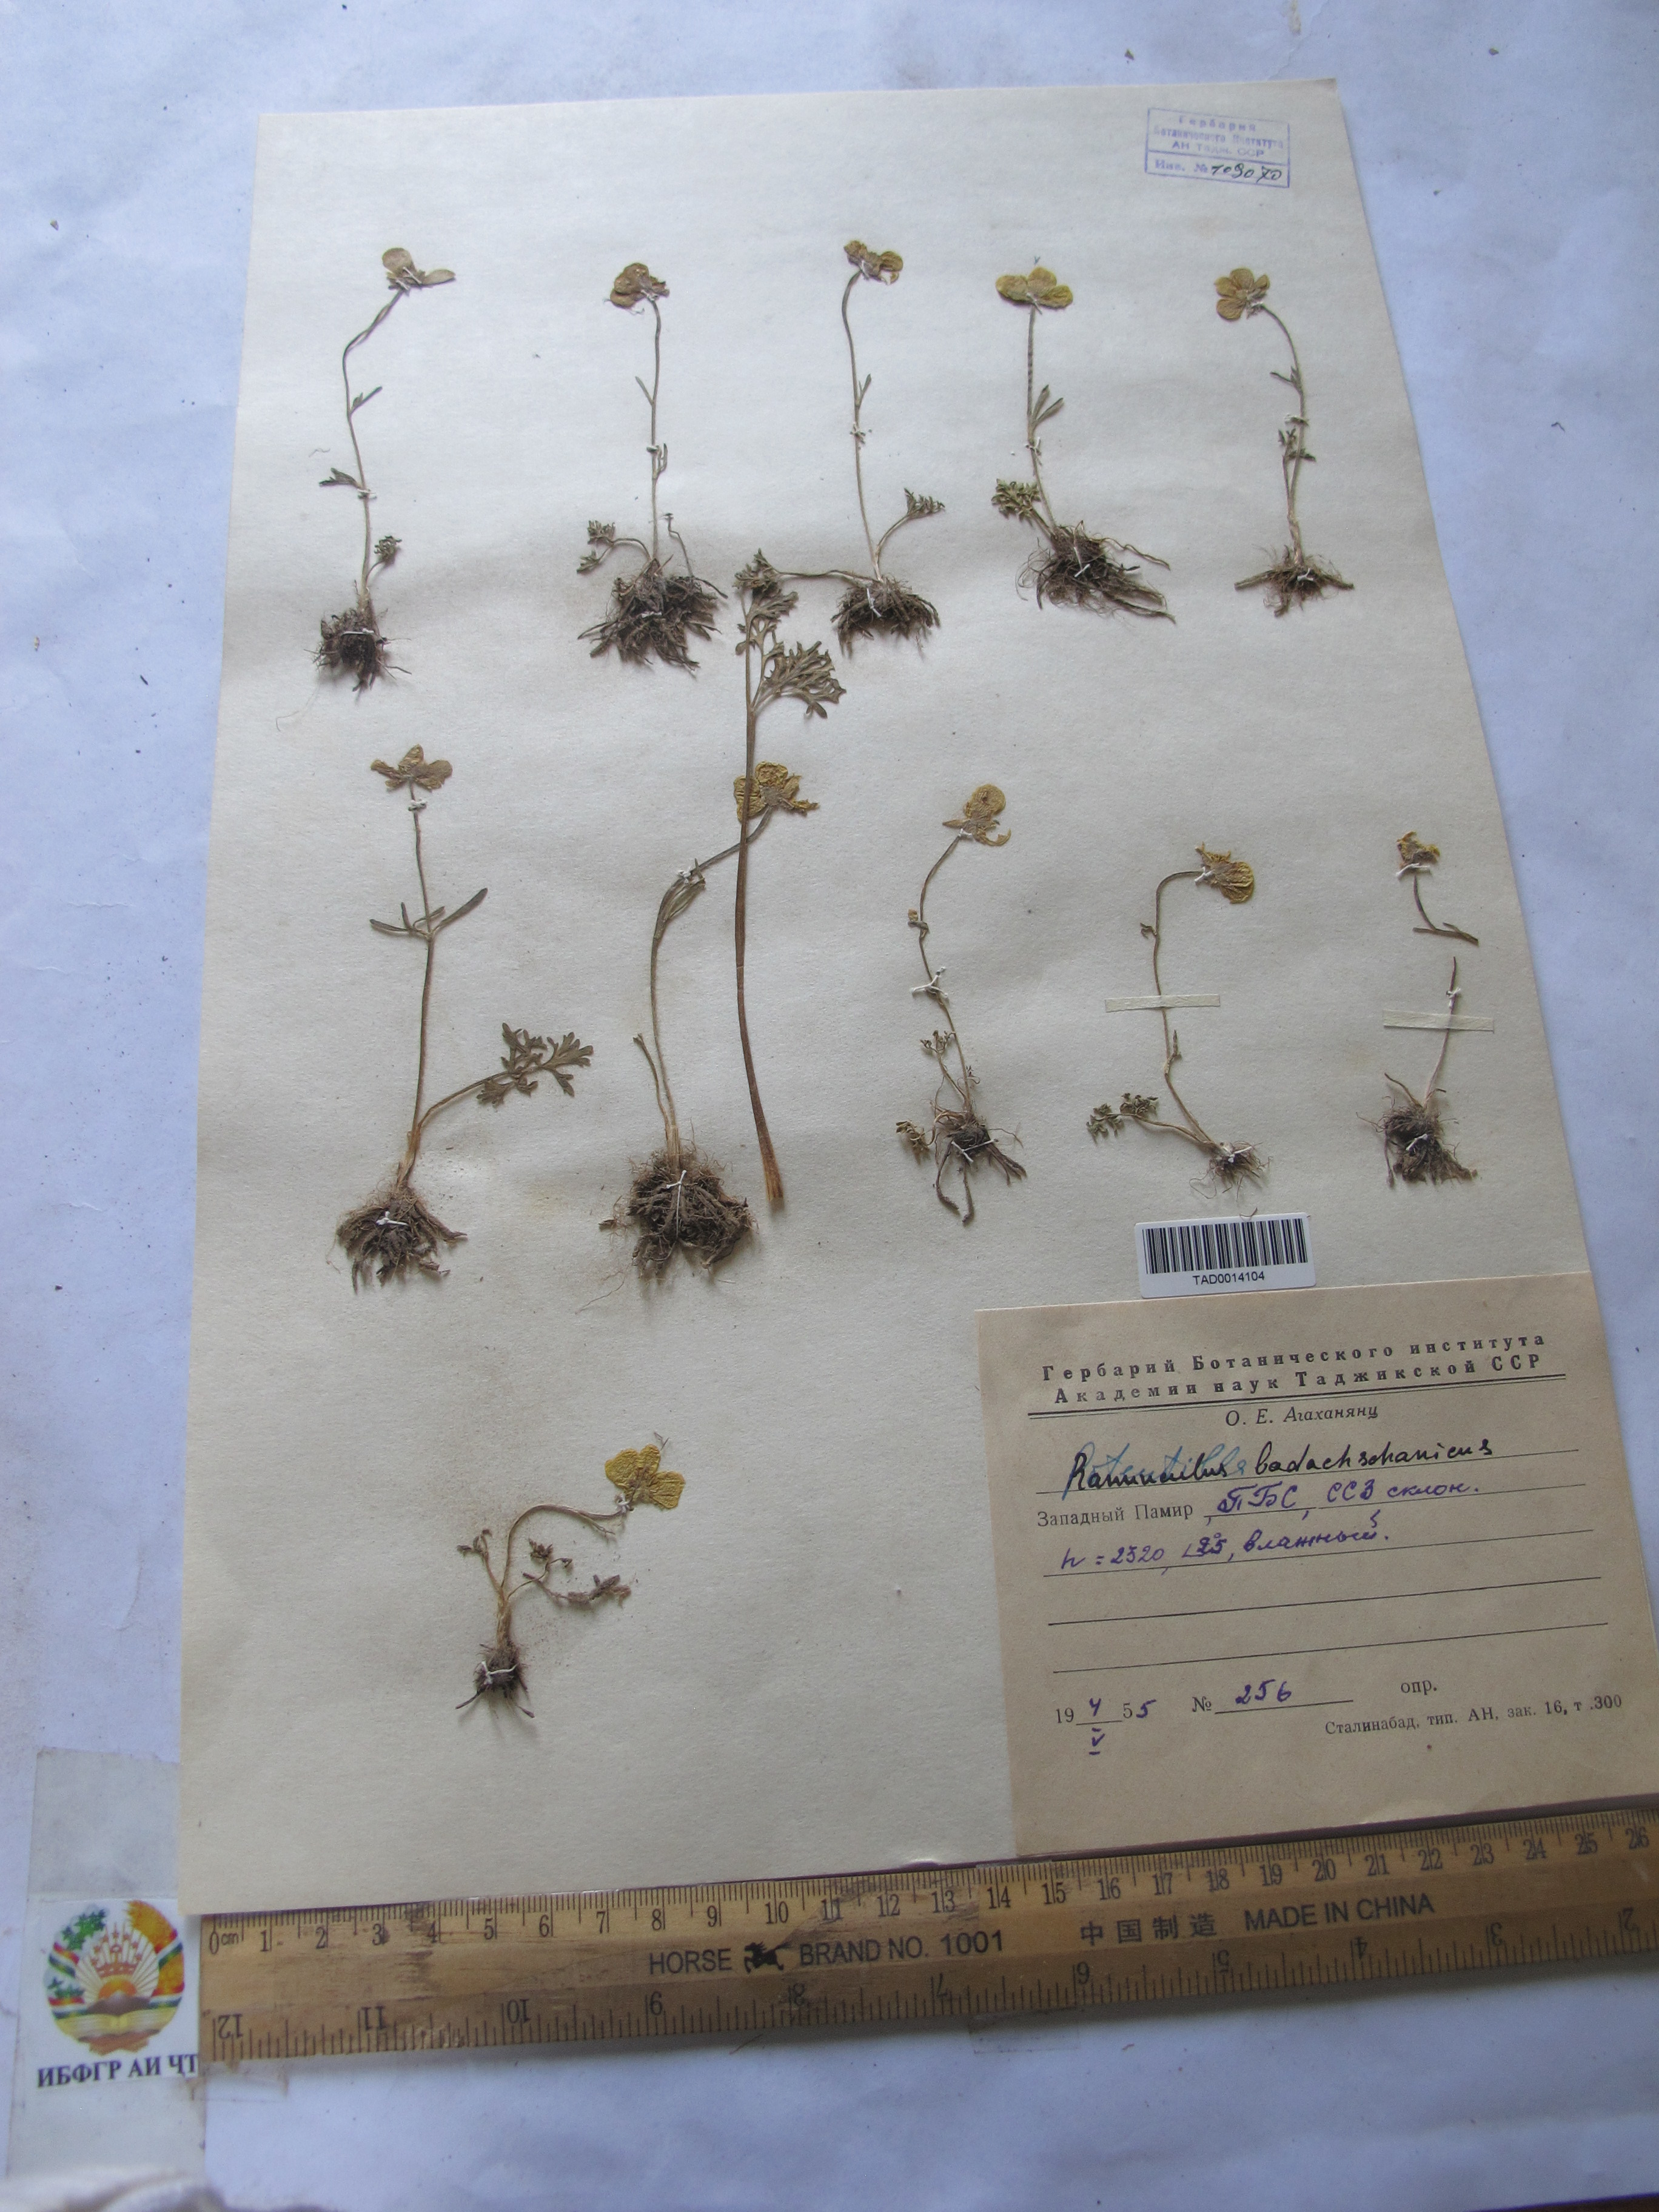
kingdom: Plantae
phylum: Tracheophyta
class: Magnoliopsida
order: Ranunculales
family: Ranunculaceae
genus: Ranunculus
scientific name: Ranunculus badachschanicus
